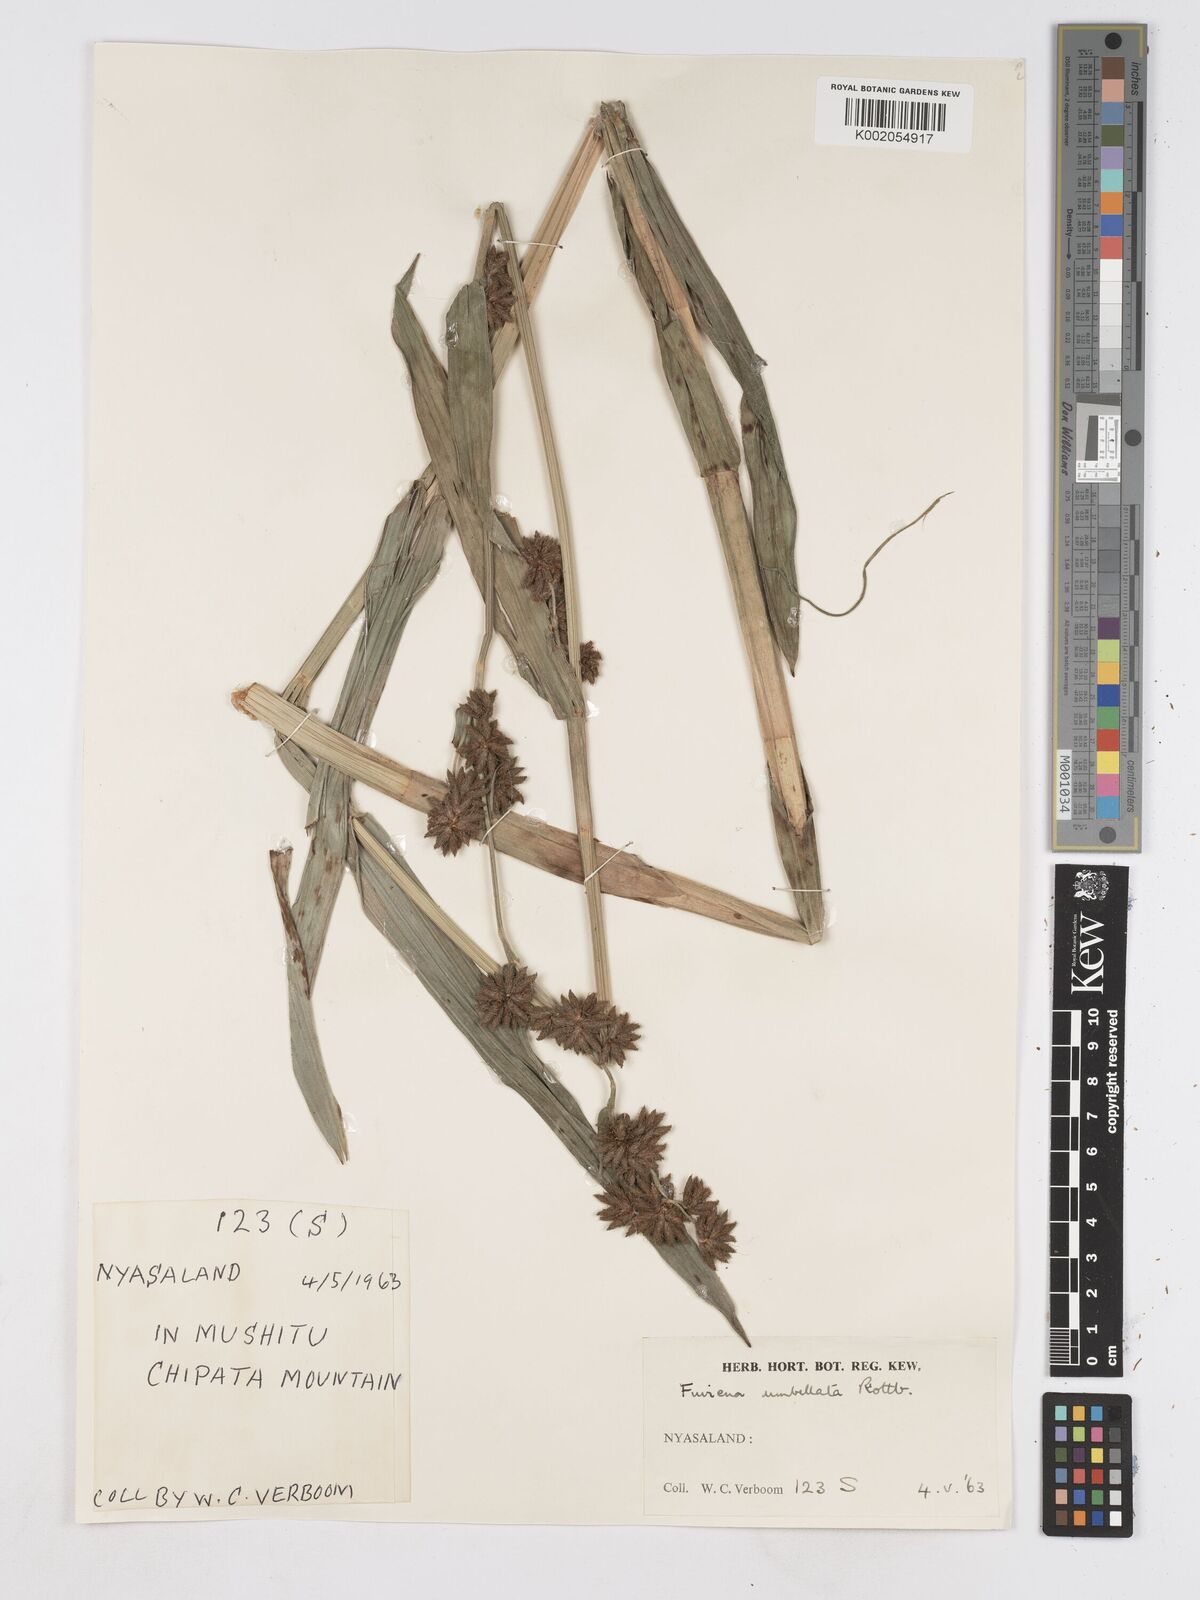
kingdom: Plantae
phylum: Tracheophyta
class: Liliopsida
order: Poales
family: Cyperaceae
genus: Fuirena
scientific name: Fuirena umbellata
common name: Yefen
